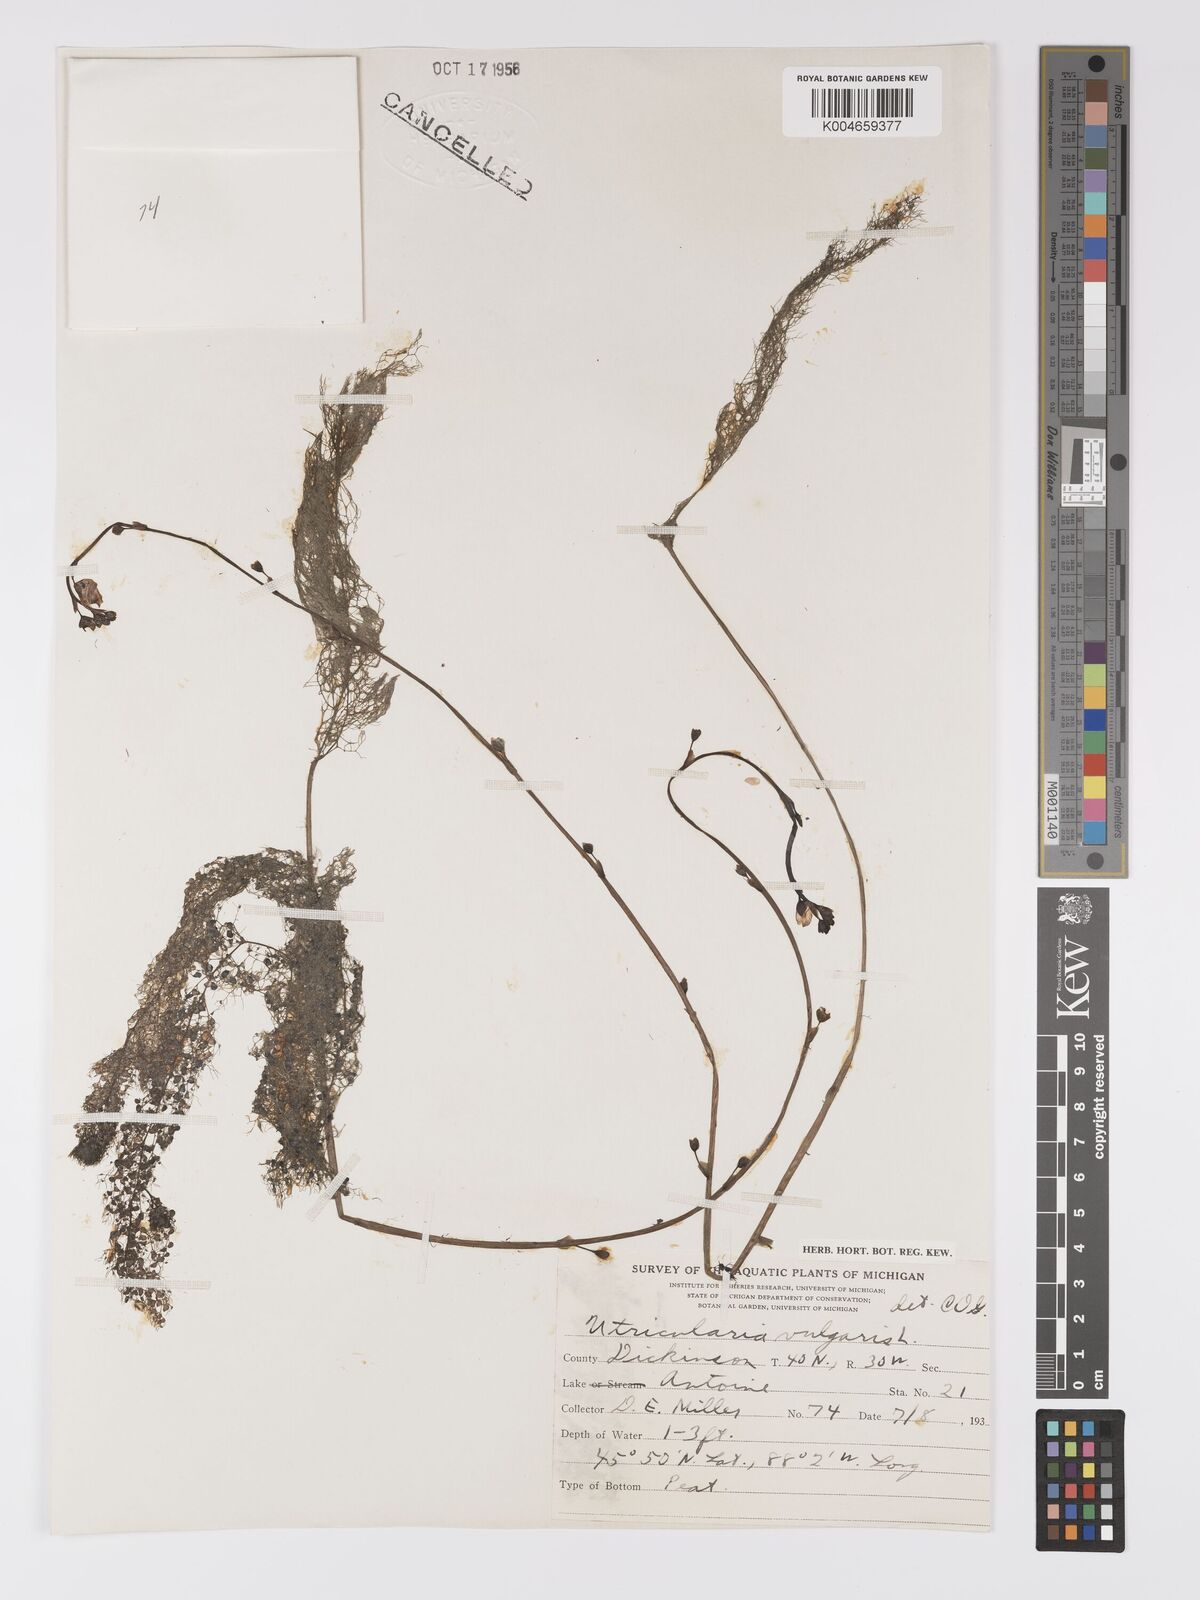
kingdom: Plantae
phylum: Tracheophyta
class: Magnoliopsida
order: Lamiales
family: Lentibulariaceae
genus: Utricularia
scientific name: Utricularia macrorhiza
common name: Common bladderwort
